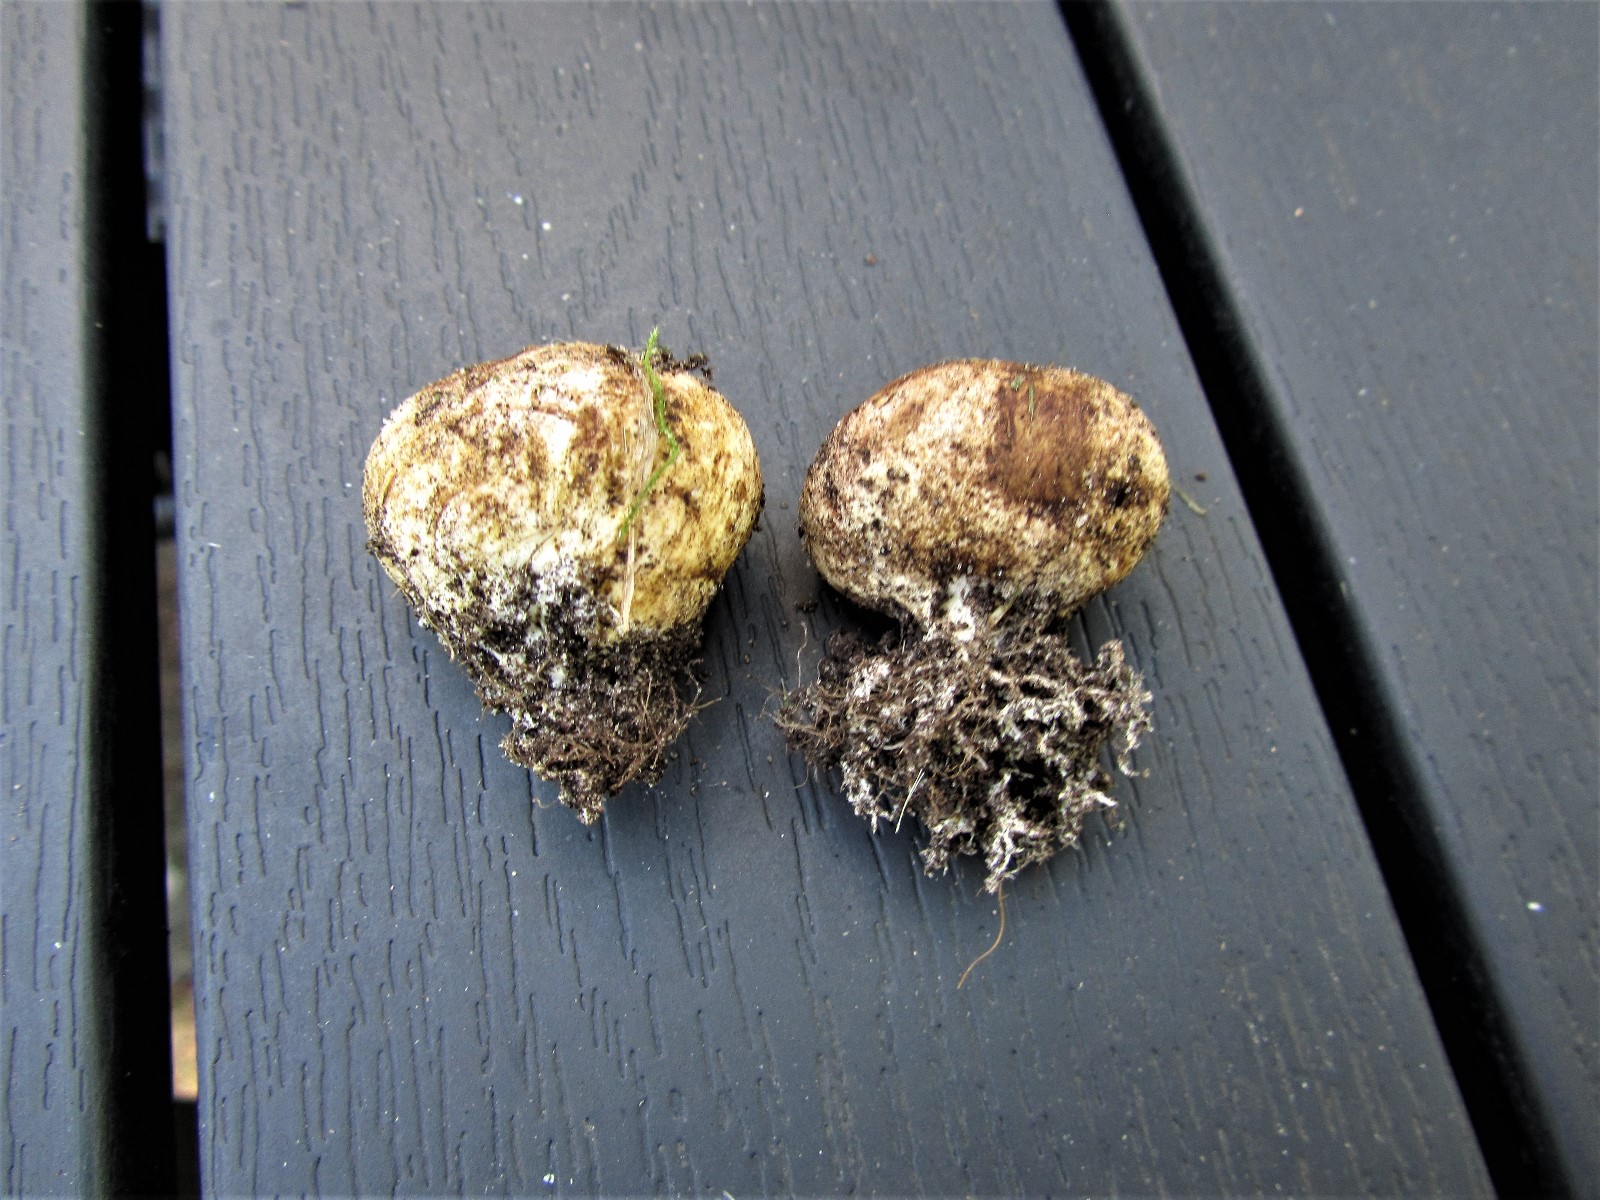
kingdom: Fungi
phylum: Basidiomycota
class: Agaricomycetes
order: Boletales
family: Sclerodermataceae
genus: Scleroderma
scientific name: Scleroderma bovista
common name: bovist-bruskbold
